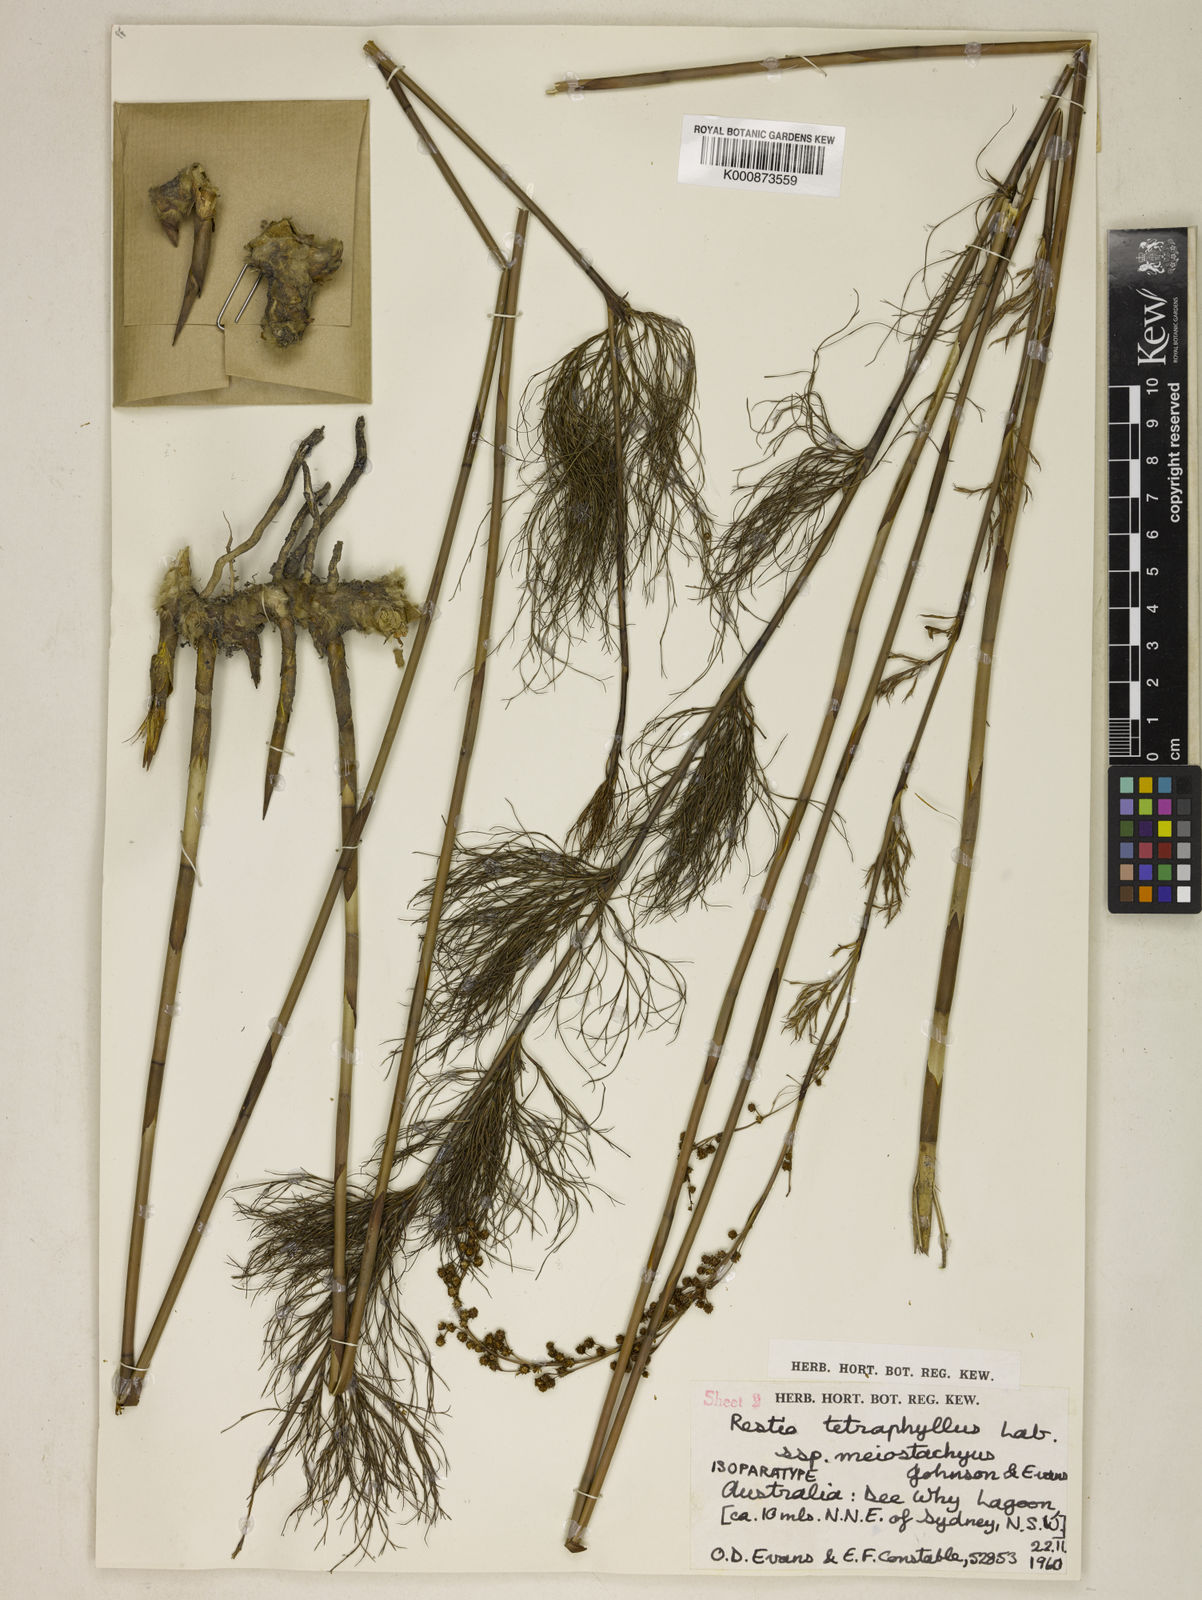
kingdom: Plantae
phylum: Tracheophyta
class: Liliopsida
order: Poales
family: Restionaceae
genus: Baloskion
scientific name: Baloskion tetraphyllum
